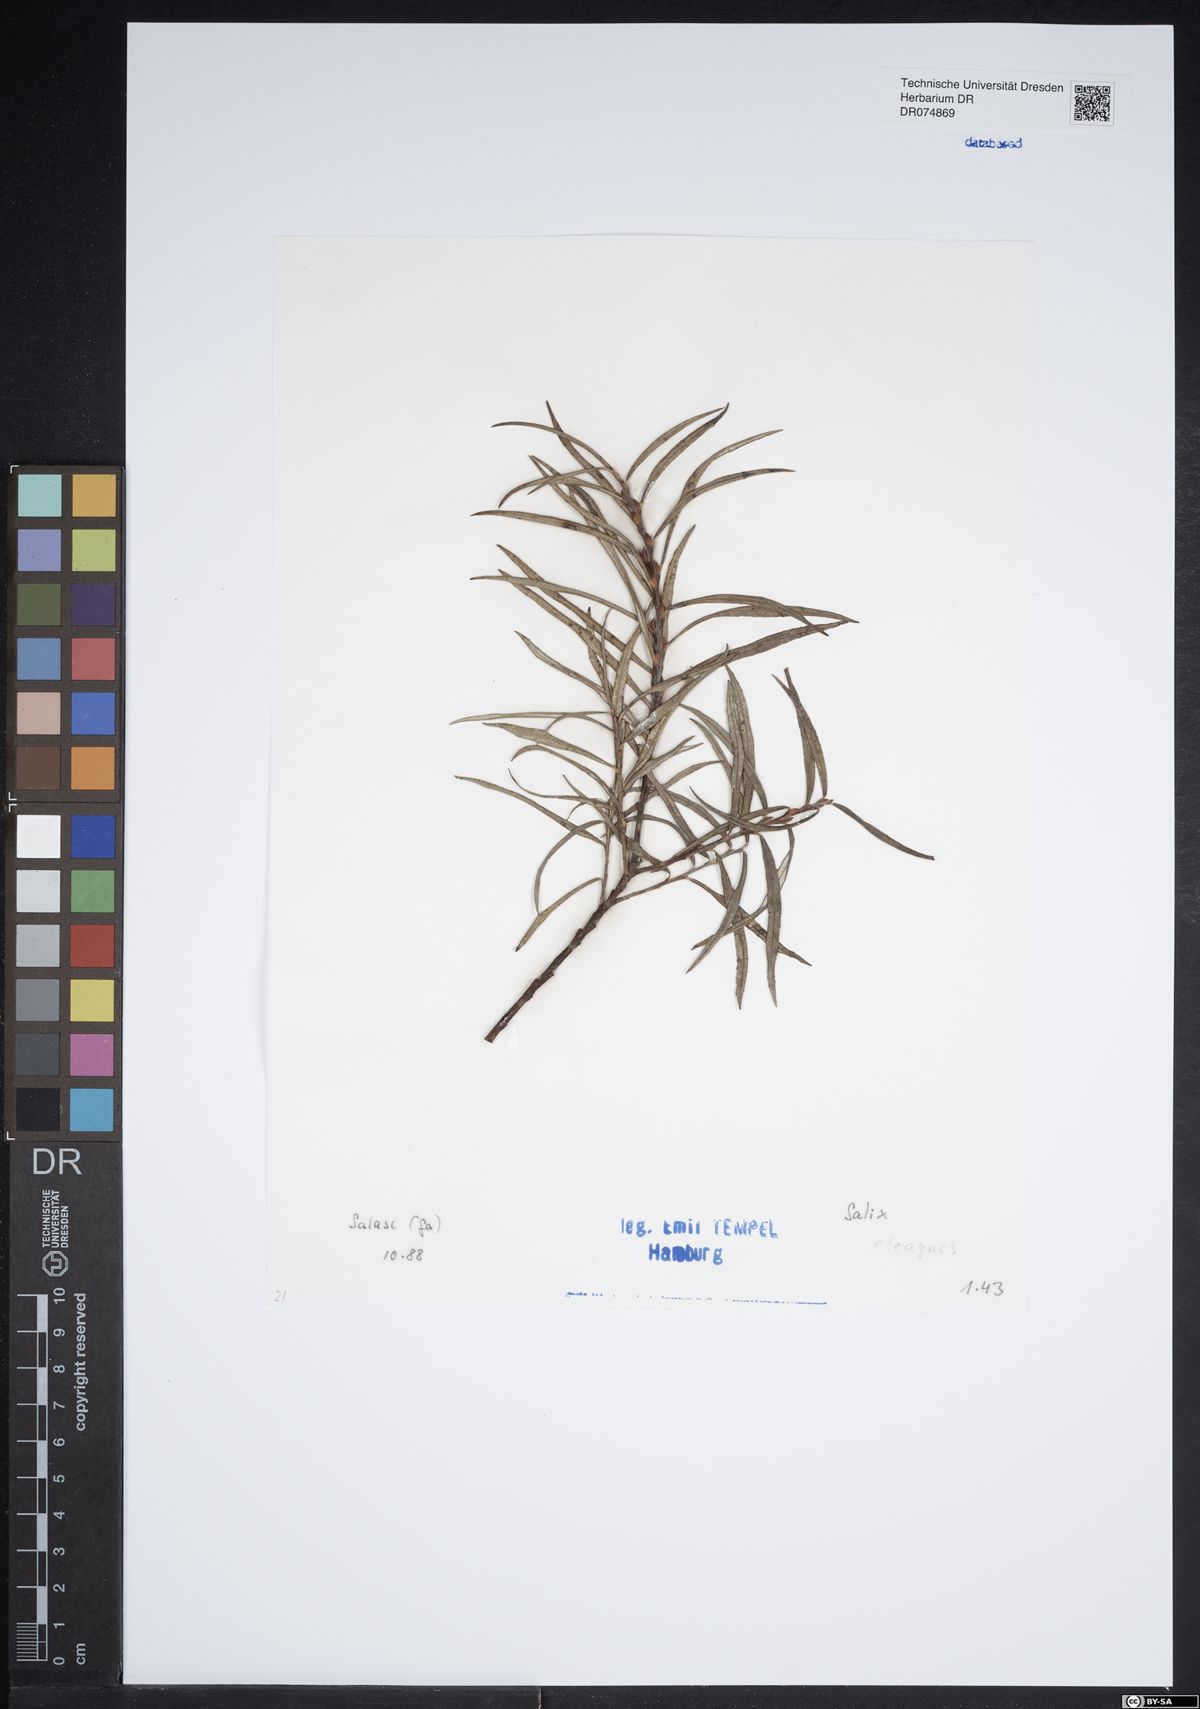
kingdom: Plantae
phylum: Tracheophyta
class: Magnoliopsida
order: Malpighiales
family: Salicaceae
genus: Salix
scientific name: Salix eleagnos
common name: Elaeagnus willow
